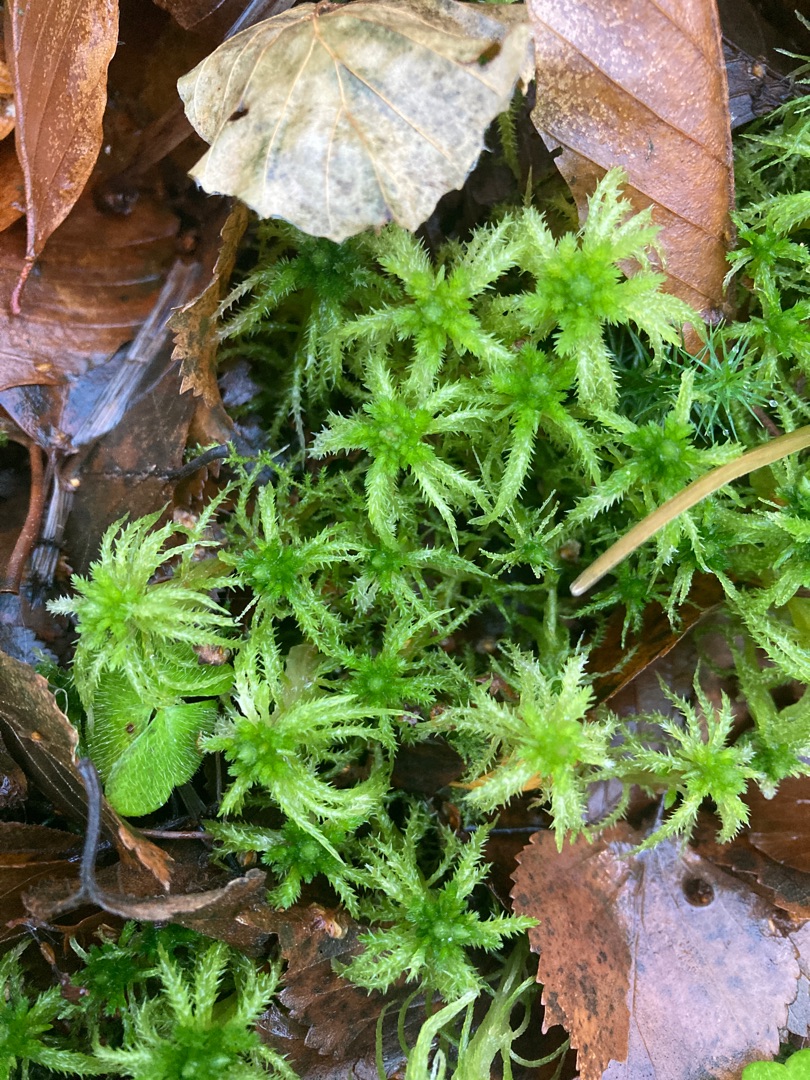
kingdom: Plantae
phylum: Bryophyta
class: Sphagnopsida
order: Sphagnales
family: Sphagnaceae
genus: Sphagnum
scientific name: Sphagnum squarrosum
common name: Udspærret tørvemos
